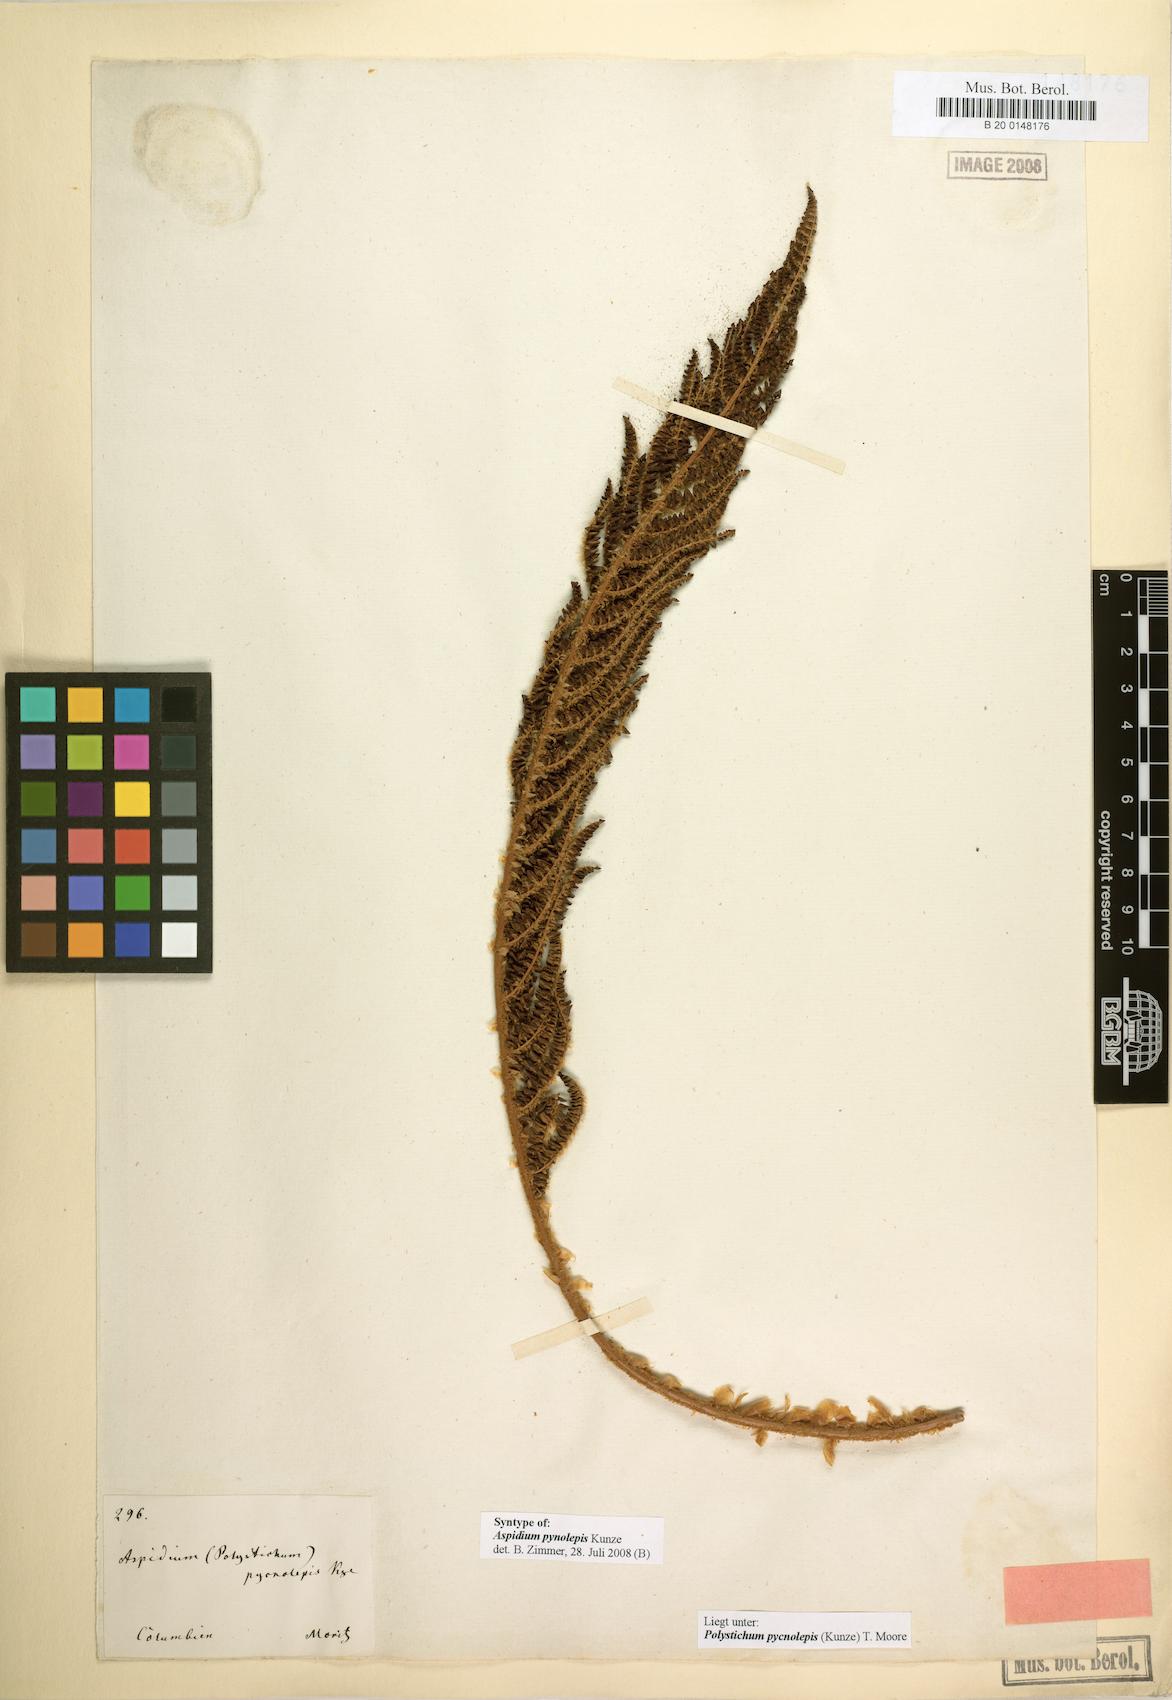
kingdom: Plantae
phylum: Tracheophyta
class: Polypodiopsida
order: Polypodiales
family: Dryopteridaceae
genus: Polystichum
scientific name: Polystichum pycnolepis
